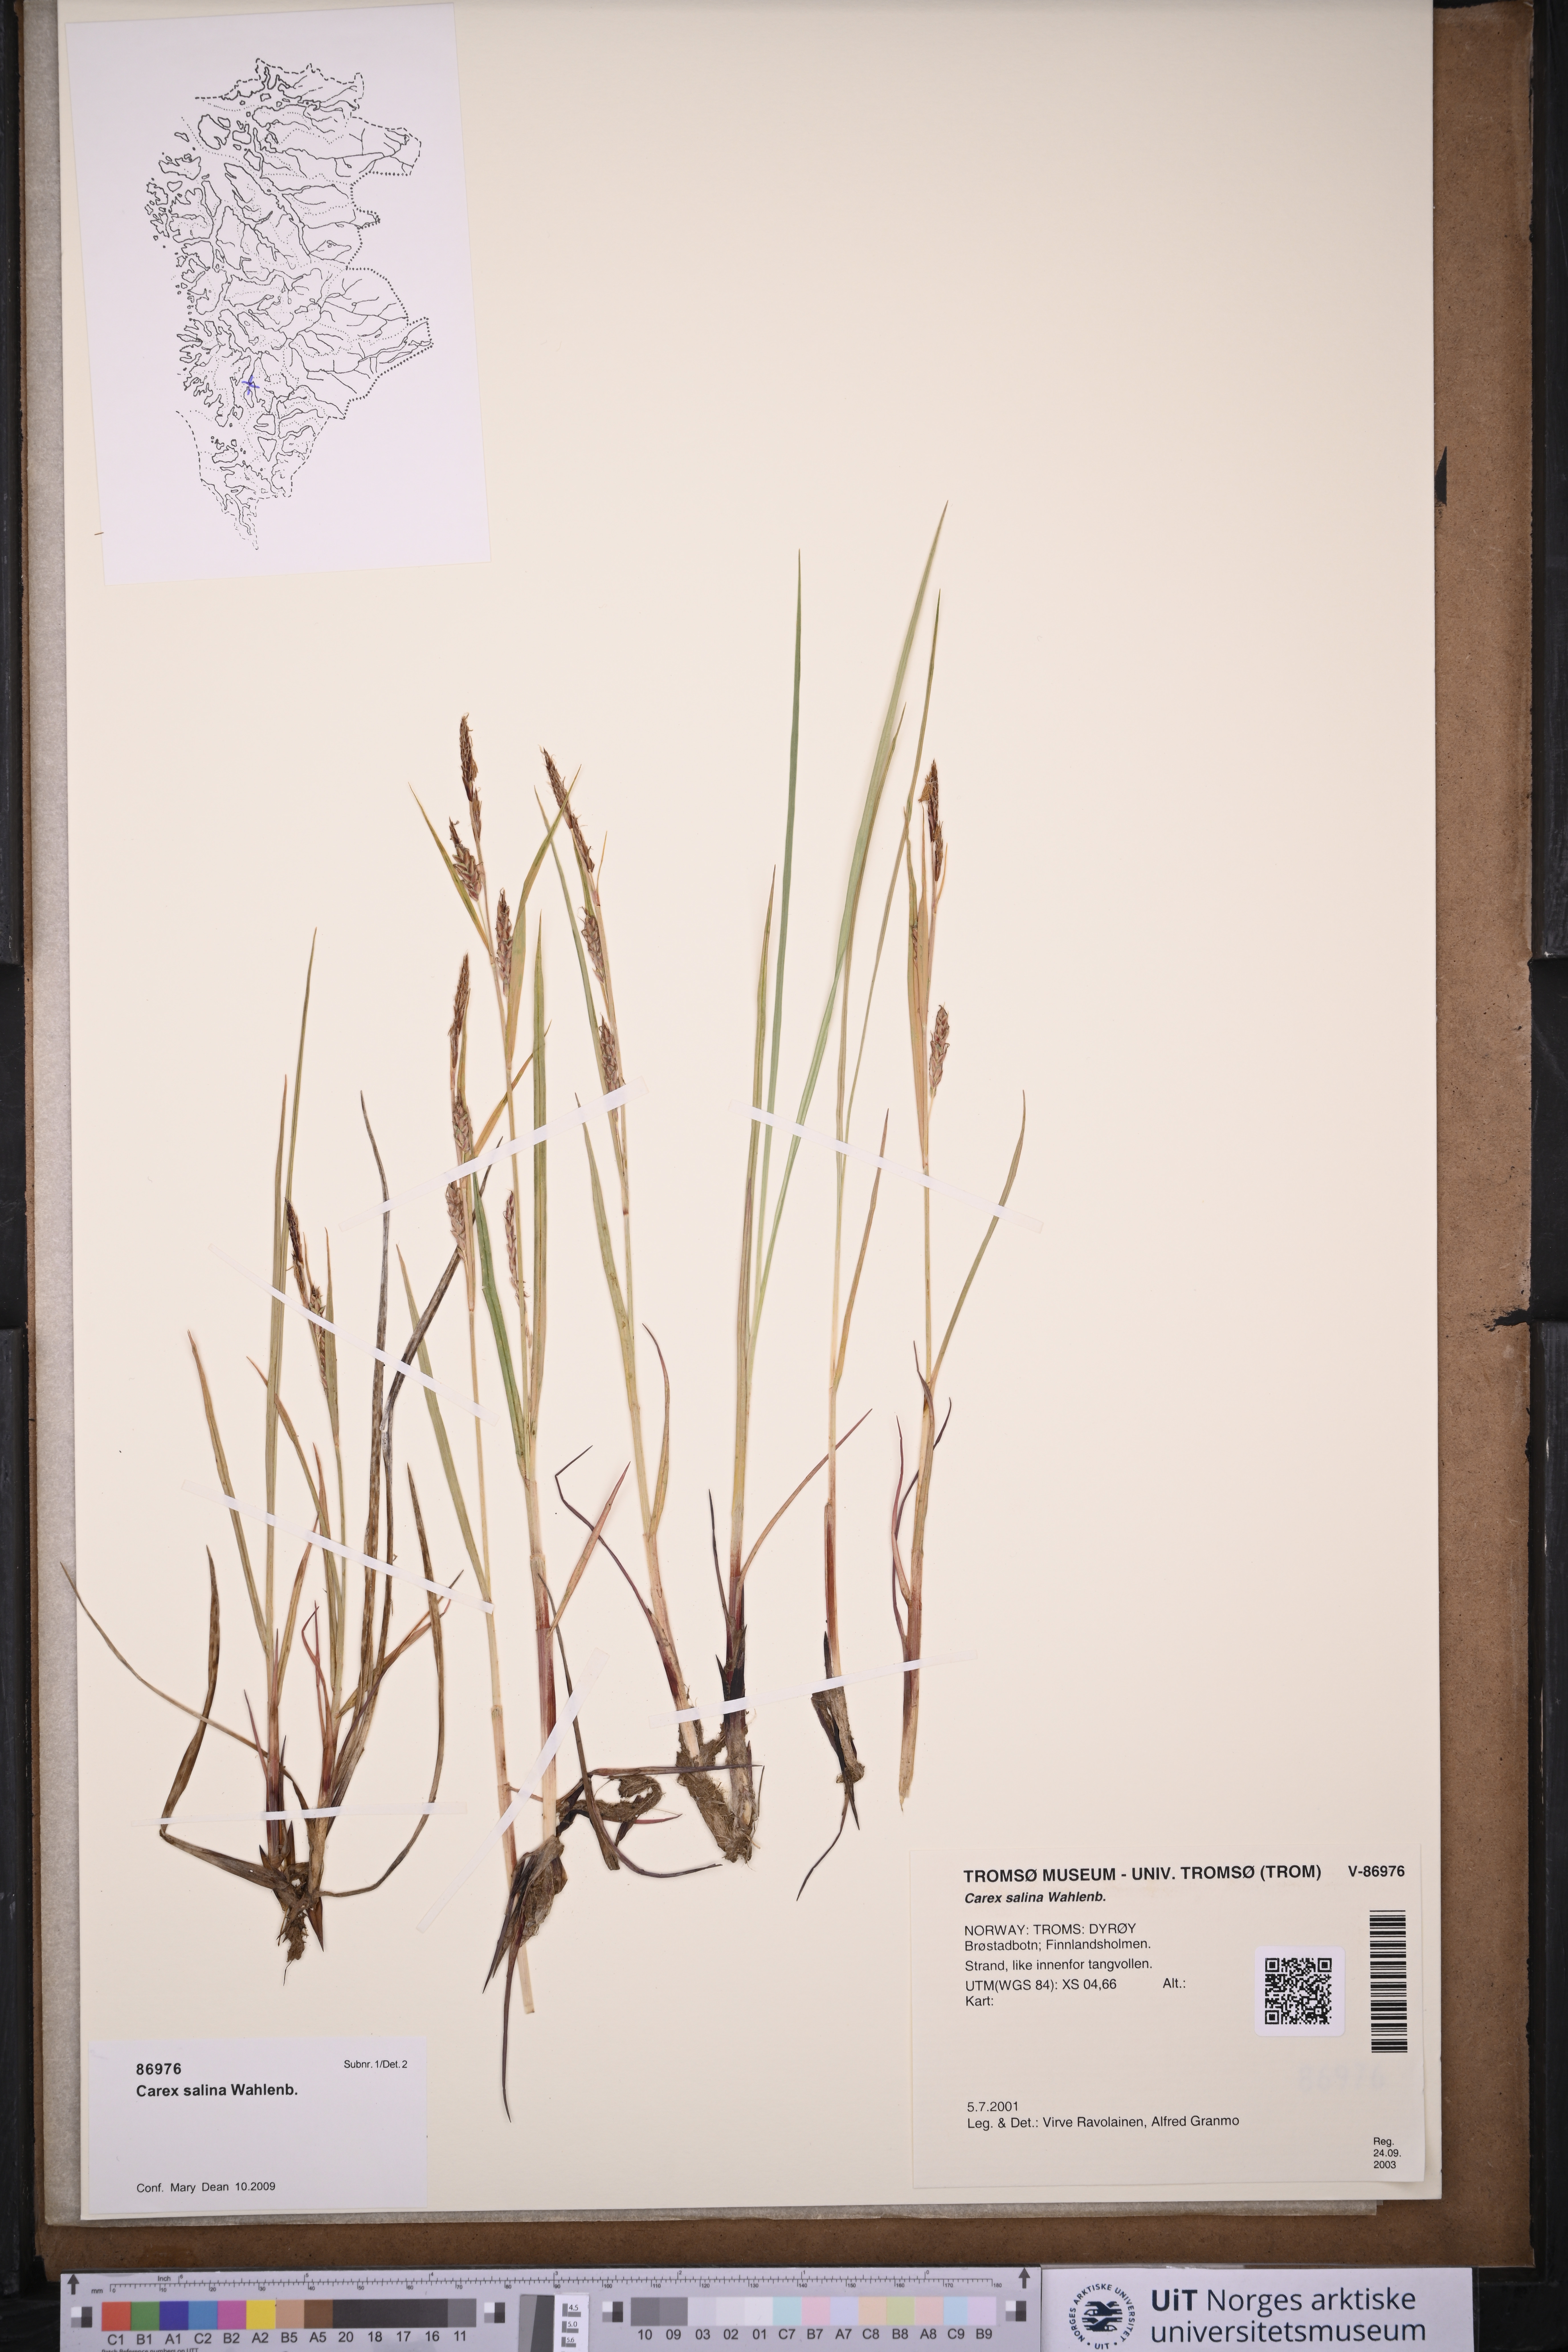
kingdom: Plantae
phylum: Tracheophyta
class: Liliopsida
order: Poales
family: Cyperaceae
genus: Carex
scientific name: Carex salina
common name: Saltmarsh sedge
